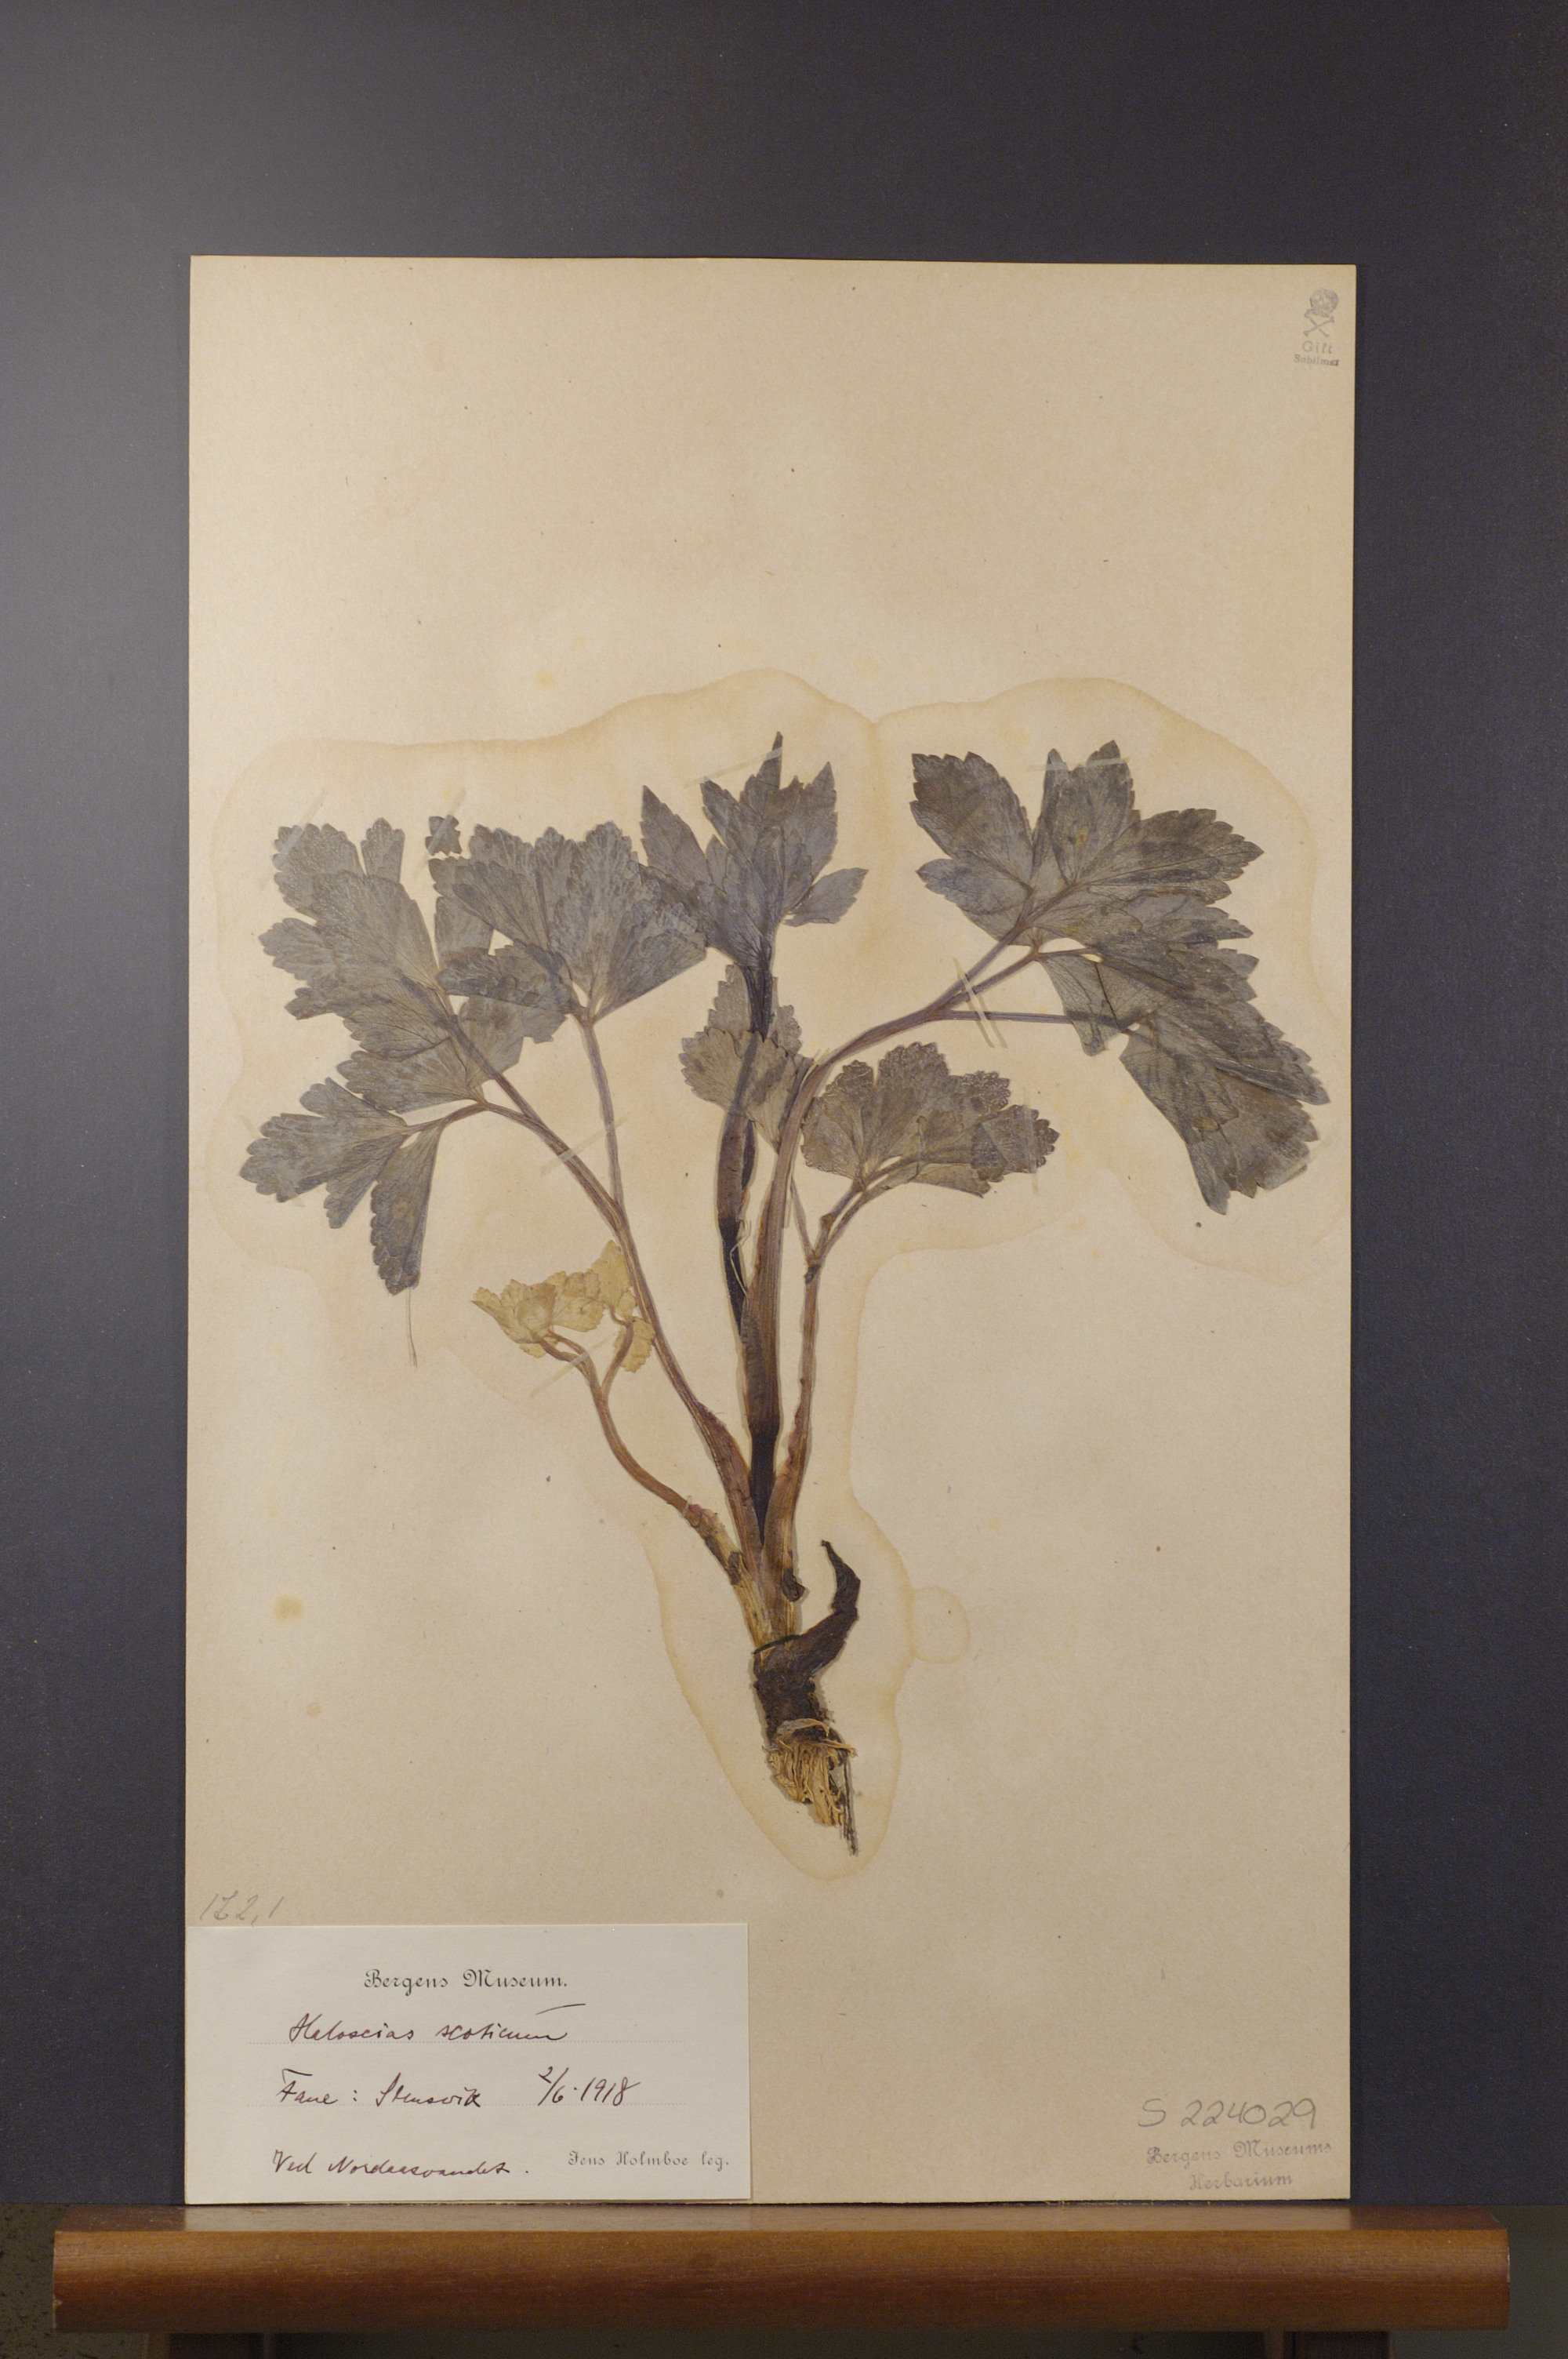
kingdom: Plantae
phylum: Tracheophyta
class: Magnoliopsida
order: Apiales
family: Apiaceae
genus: Ligusticum
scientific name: Ligusticum scothicum
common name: Beach lovage
